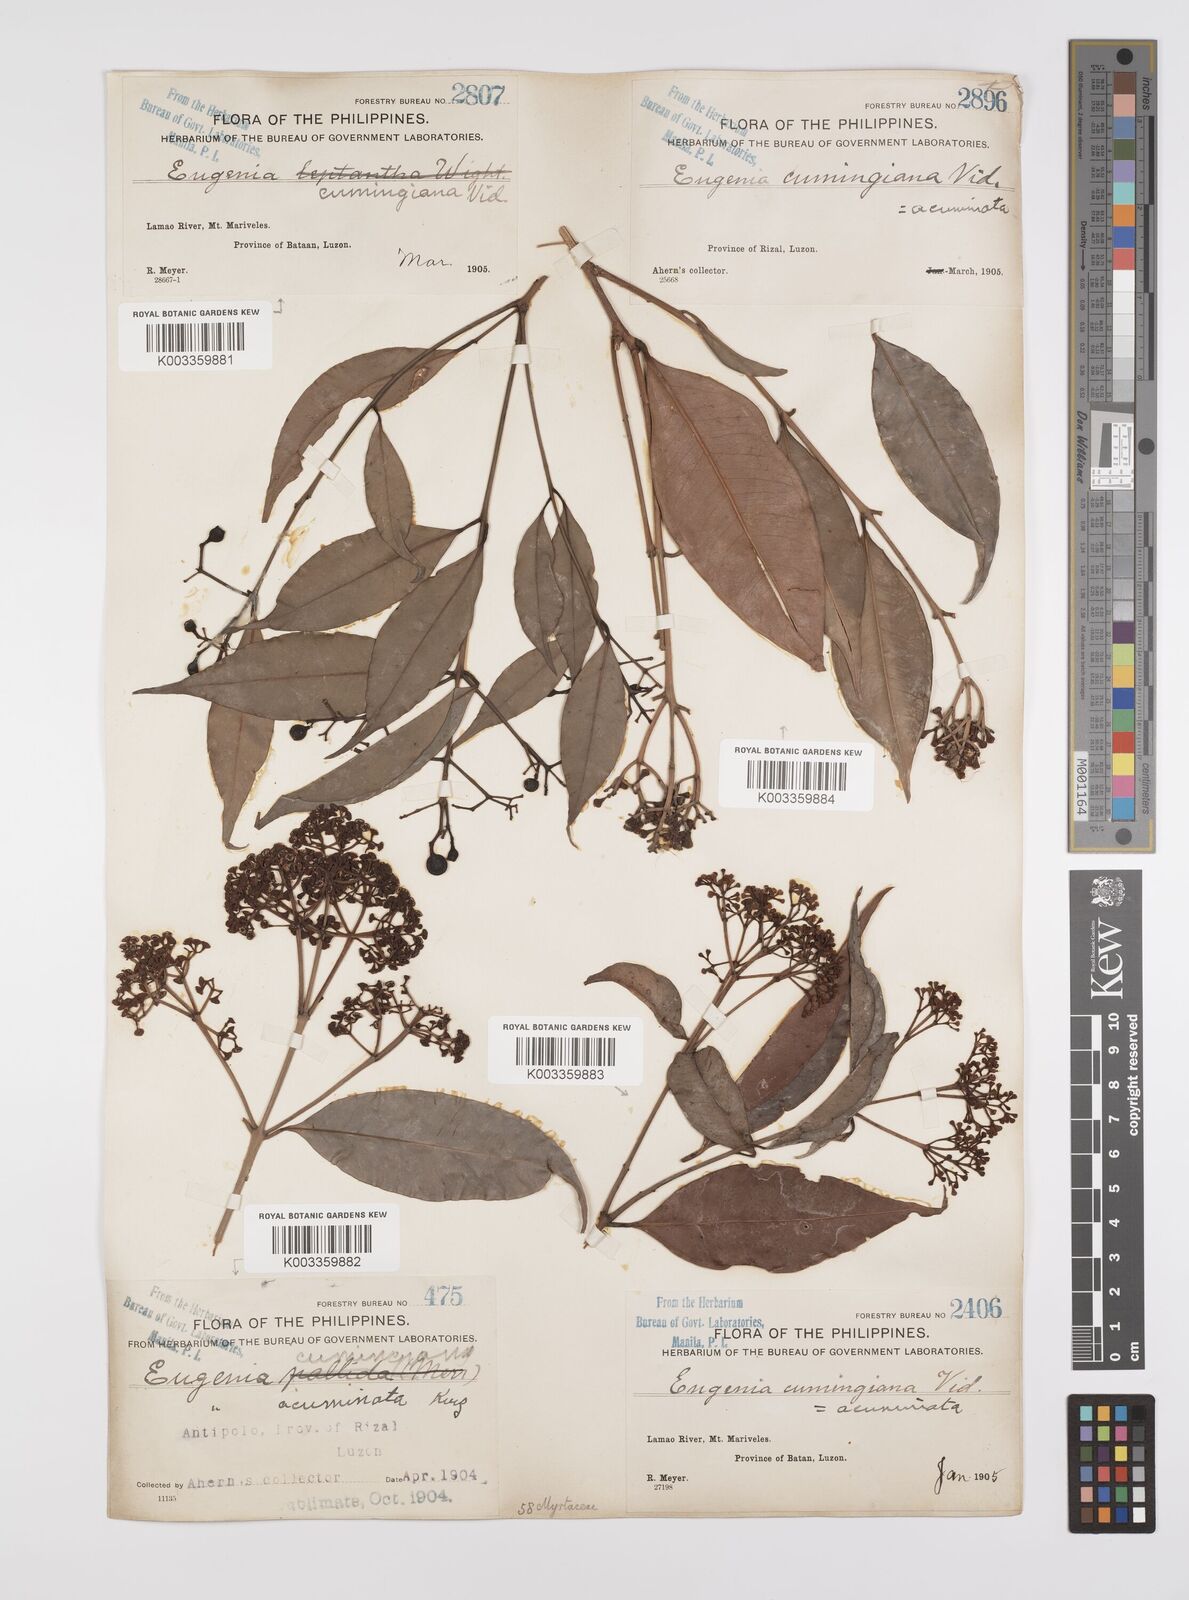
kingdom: Plantae
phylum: Tracheophyta
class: Magnoliopsida
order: Myrtales
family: Myrtaceae
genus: Syzygium
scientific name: Syzygium
